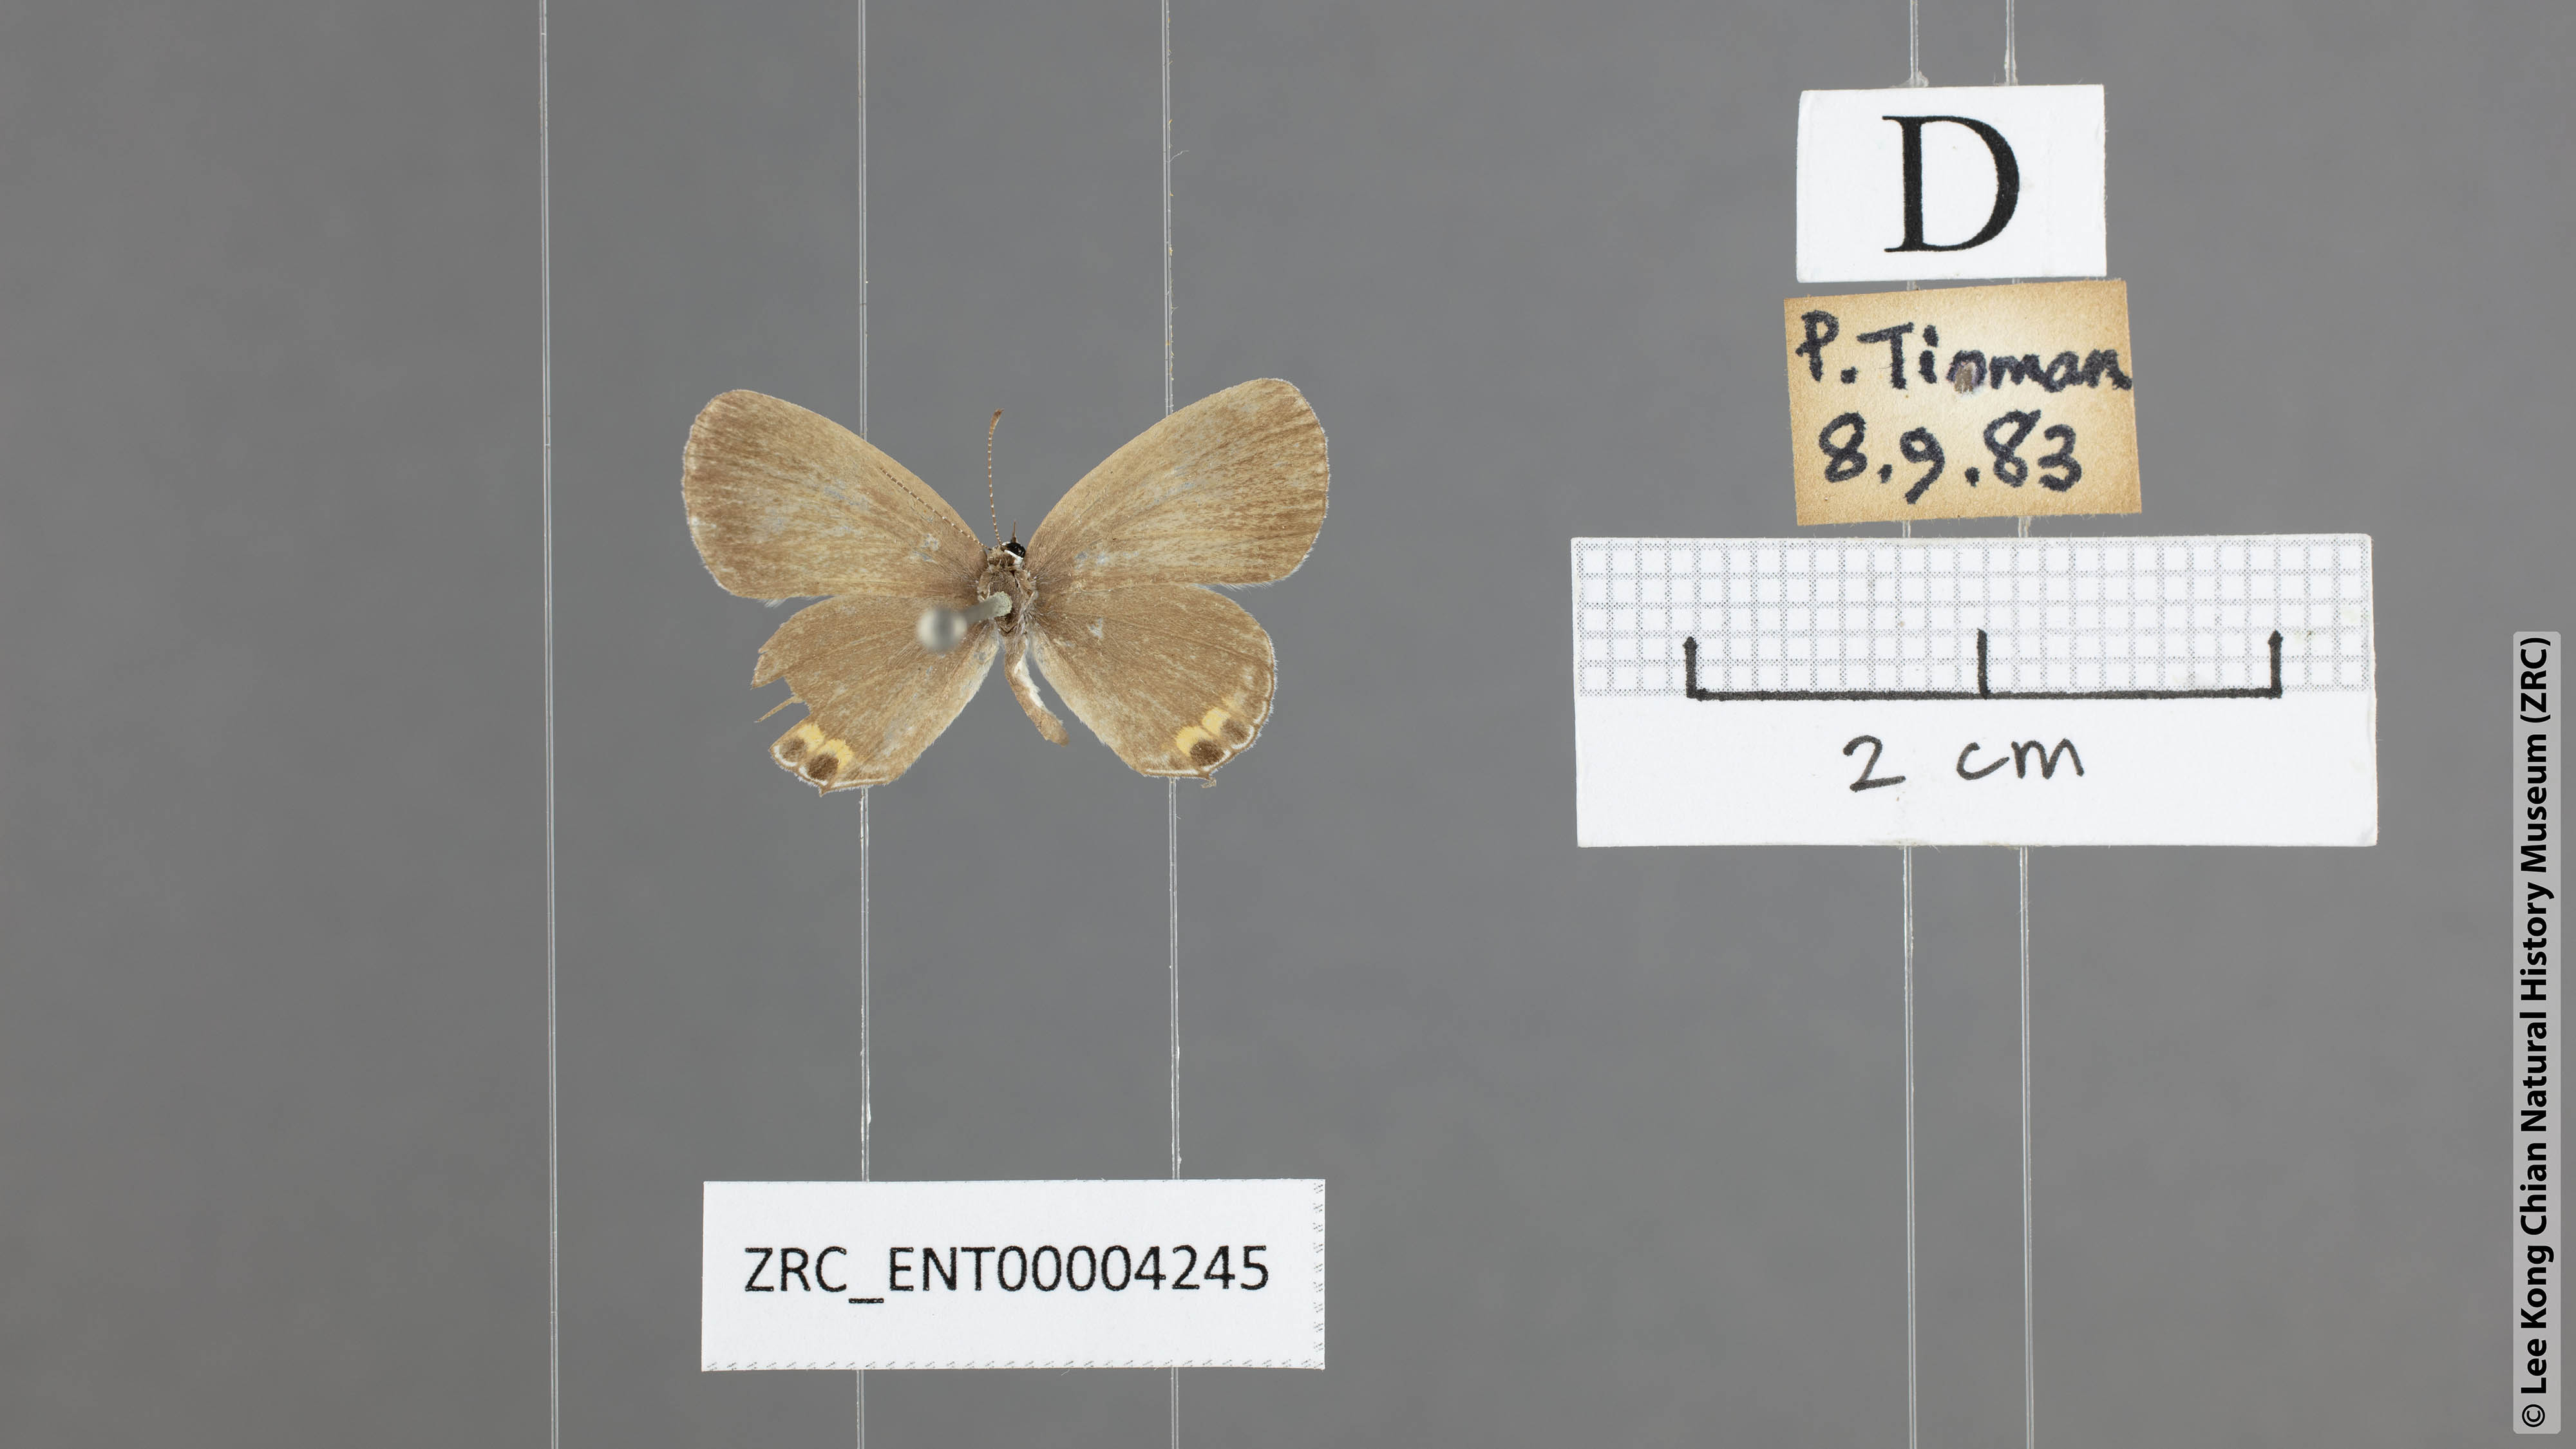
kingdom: Animalia
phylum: Arthropoda
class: Insecta
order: Lepidoptera
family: Lycaenidae
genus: Everes
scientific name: Everes lacturnus
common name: Orange-tipped pea-blue
